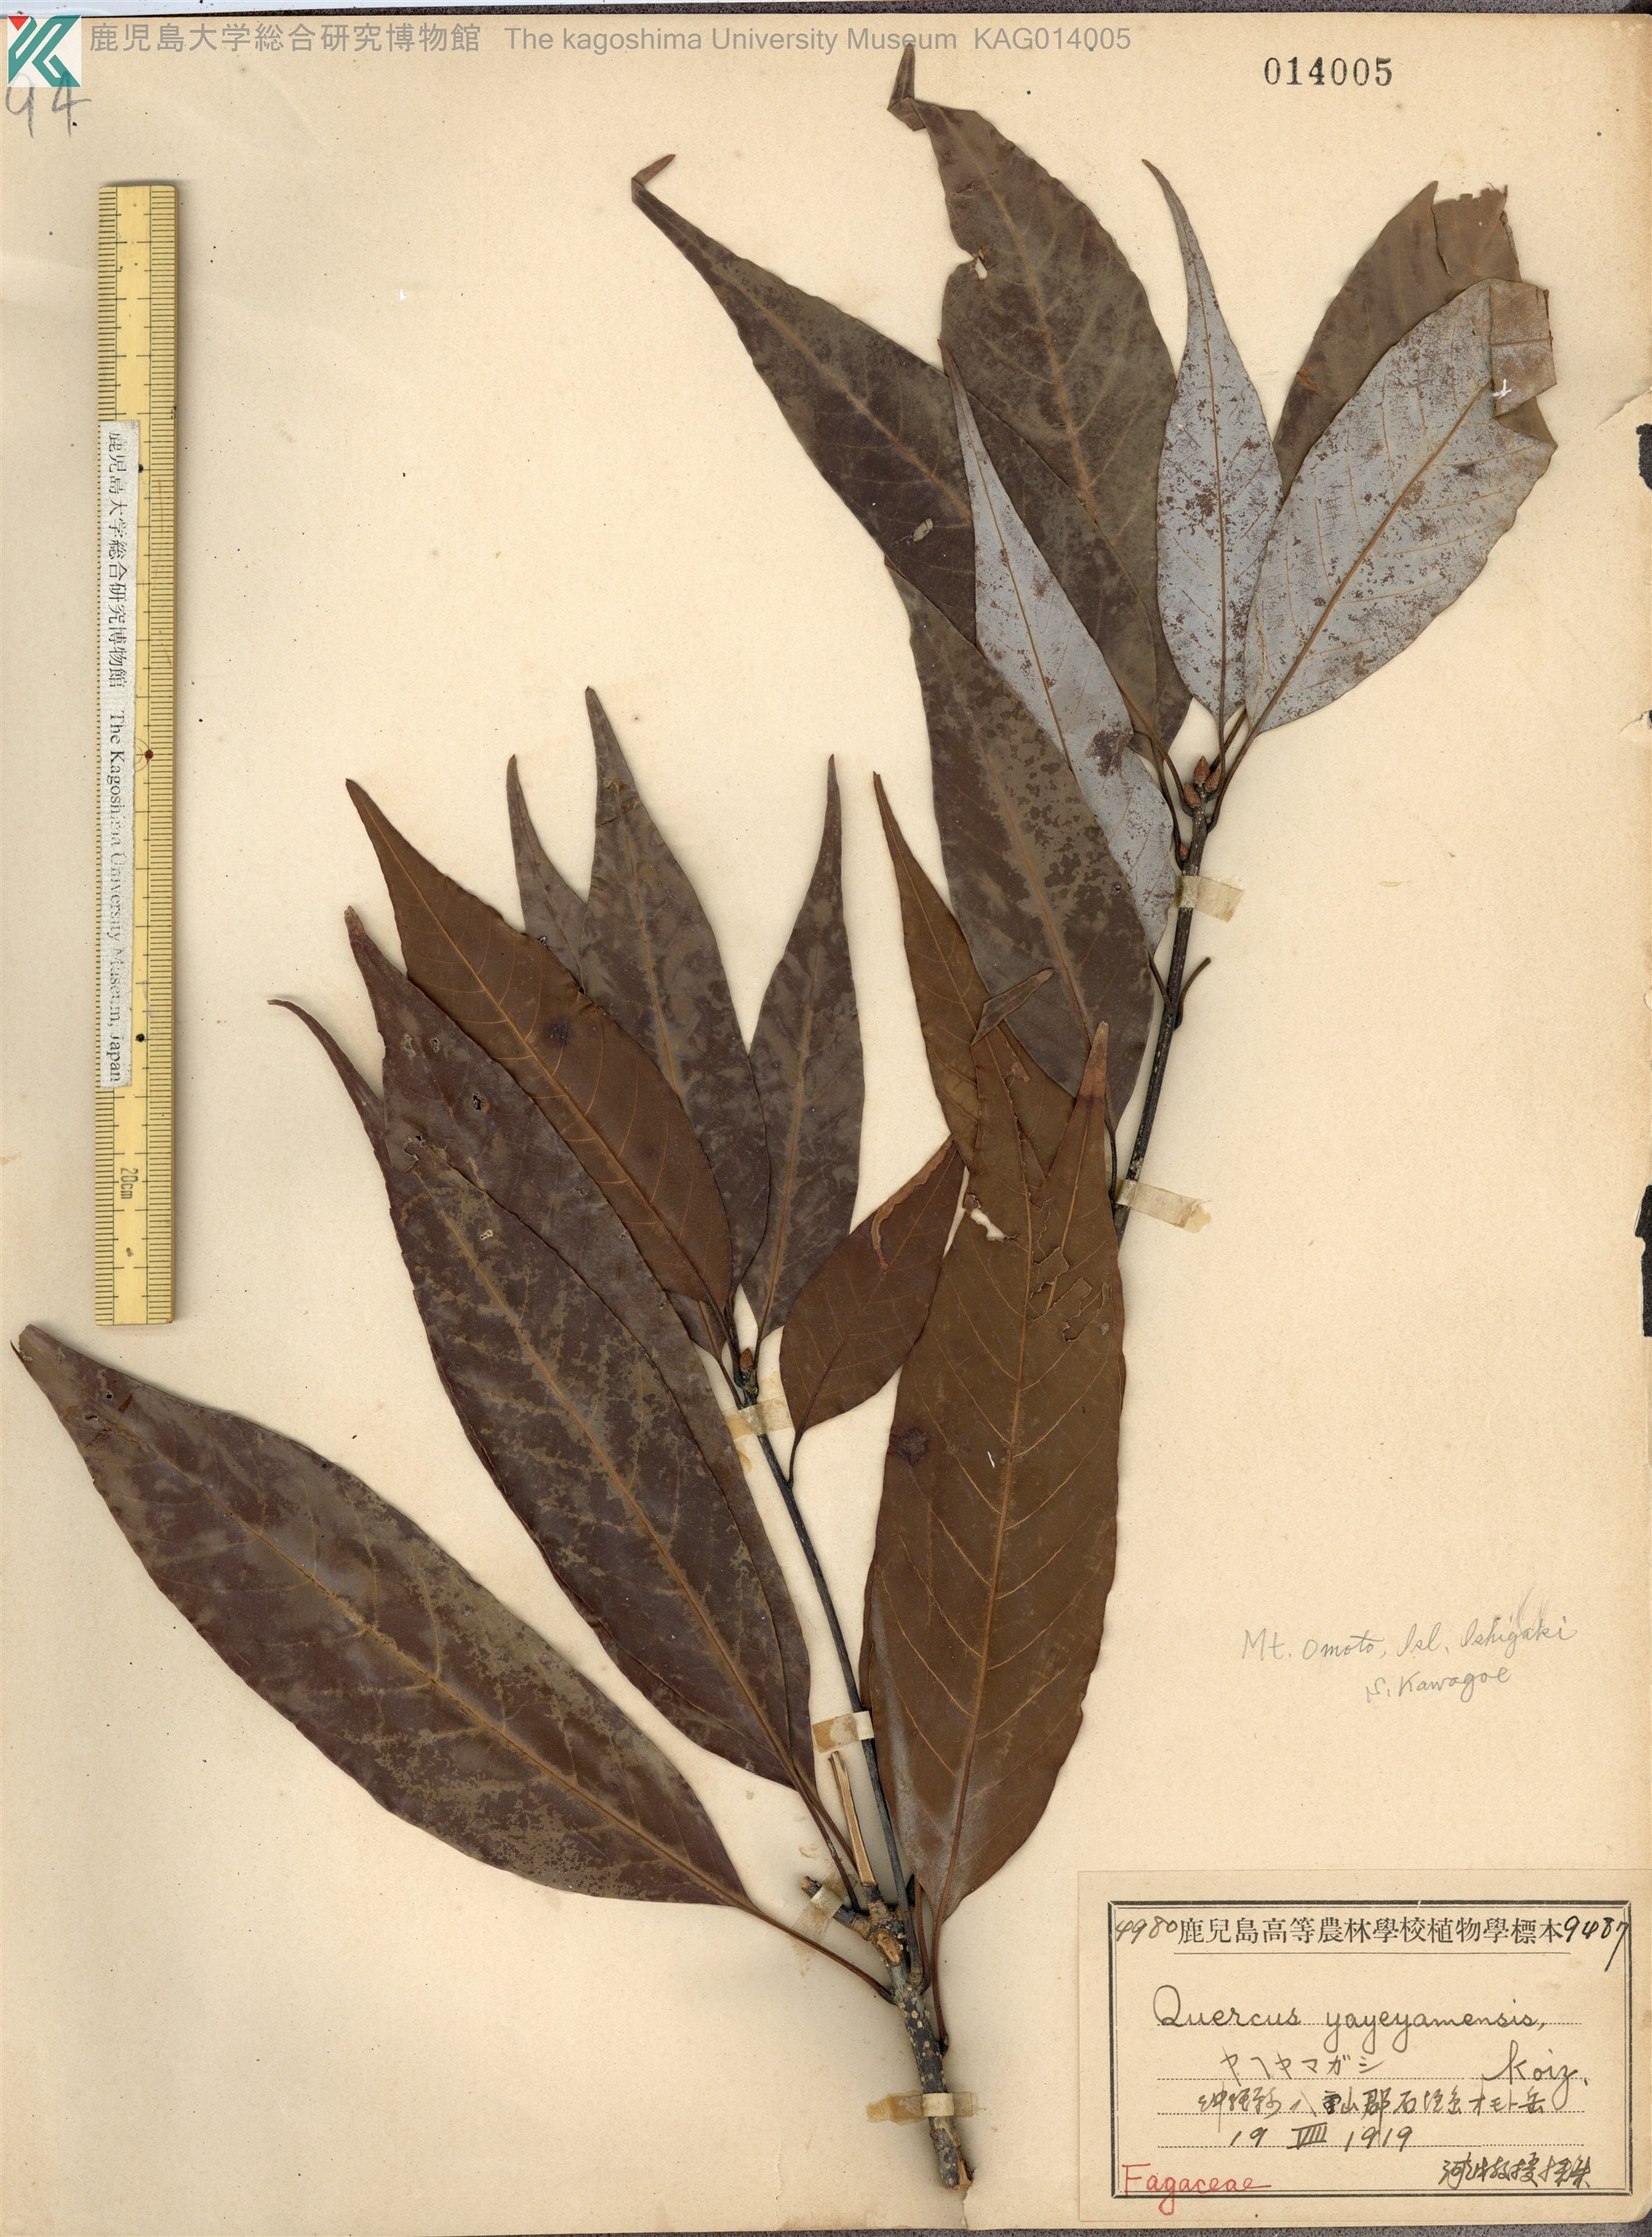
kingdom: Plantae
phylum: Tracheophyta
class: Magnoliopsida
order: Fagales
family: Fagaceae
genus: Quercus
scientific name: Quercus miyagii
